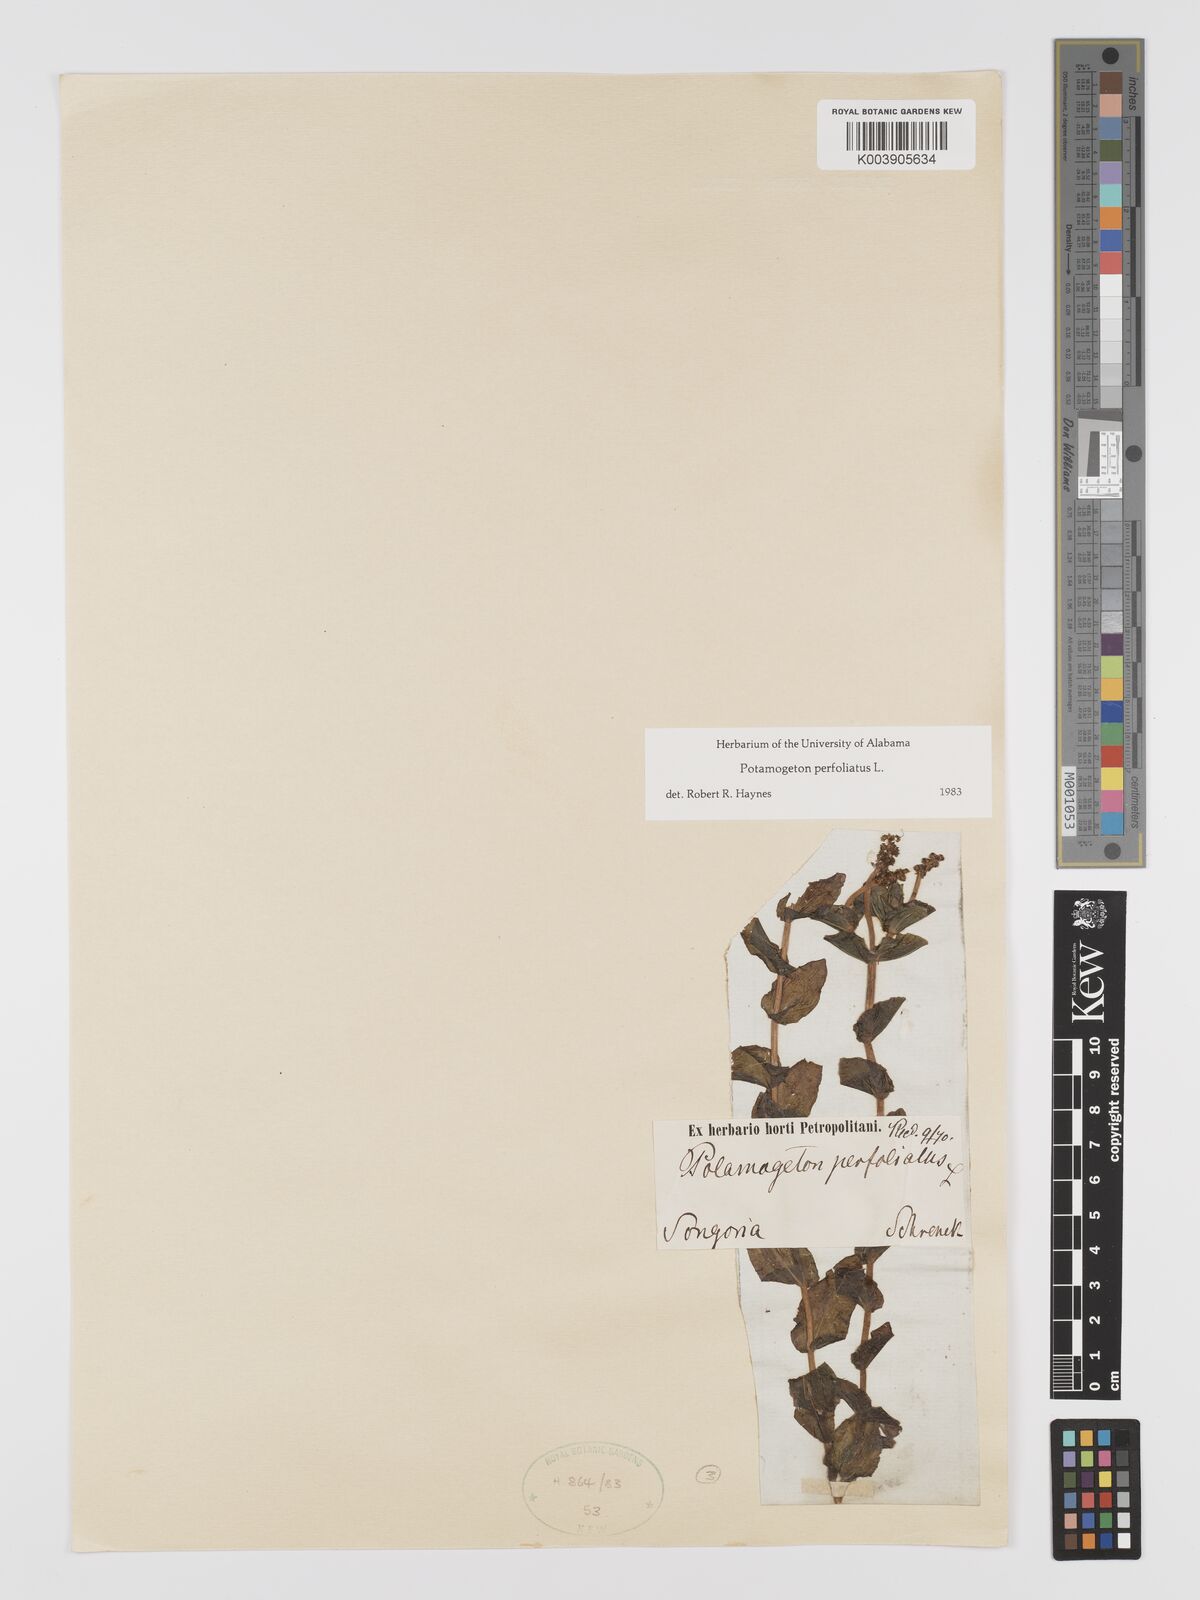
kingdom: Plantae
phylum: Tracheophyta
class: Liliopsida
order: Alismatales
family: Potamogetonaceae
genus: Potamogeton
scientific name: Potamogeton perfoliatus
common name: Perfoliate pondweed
